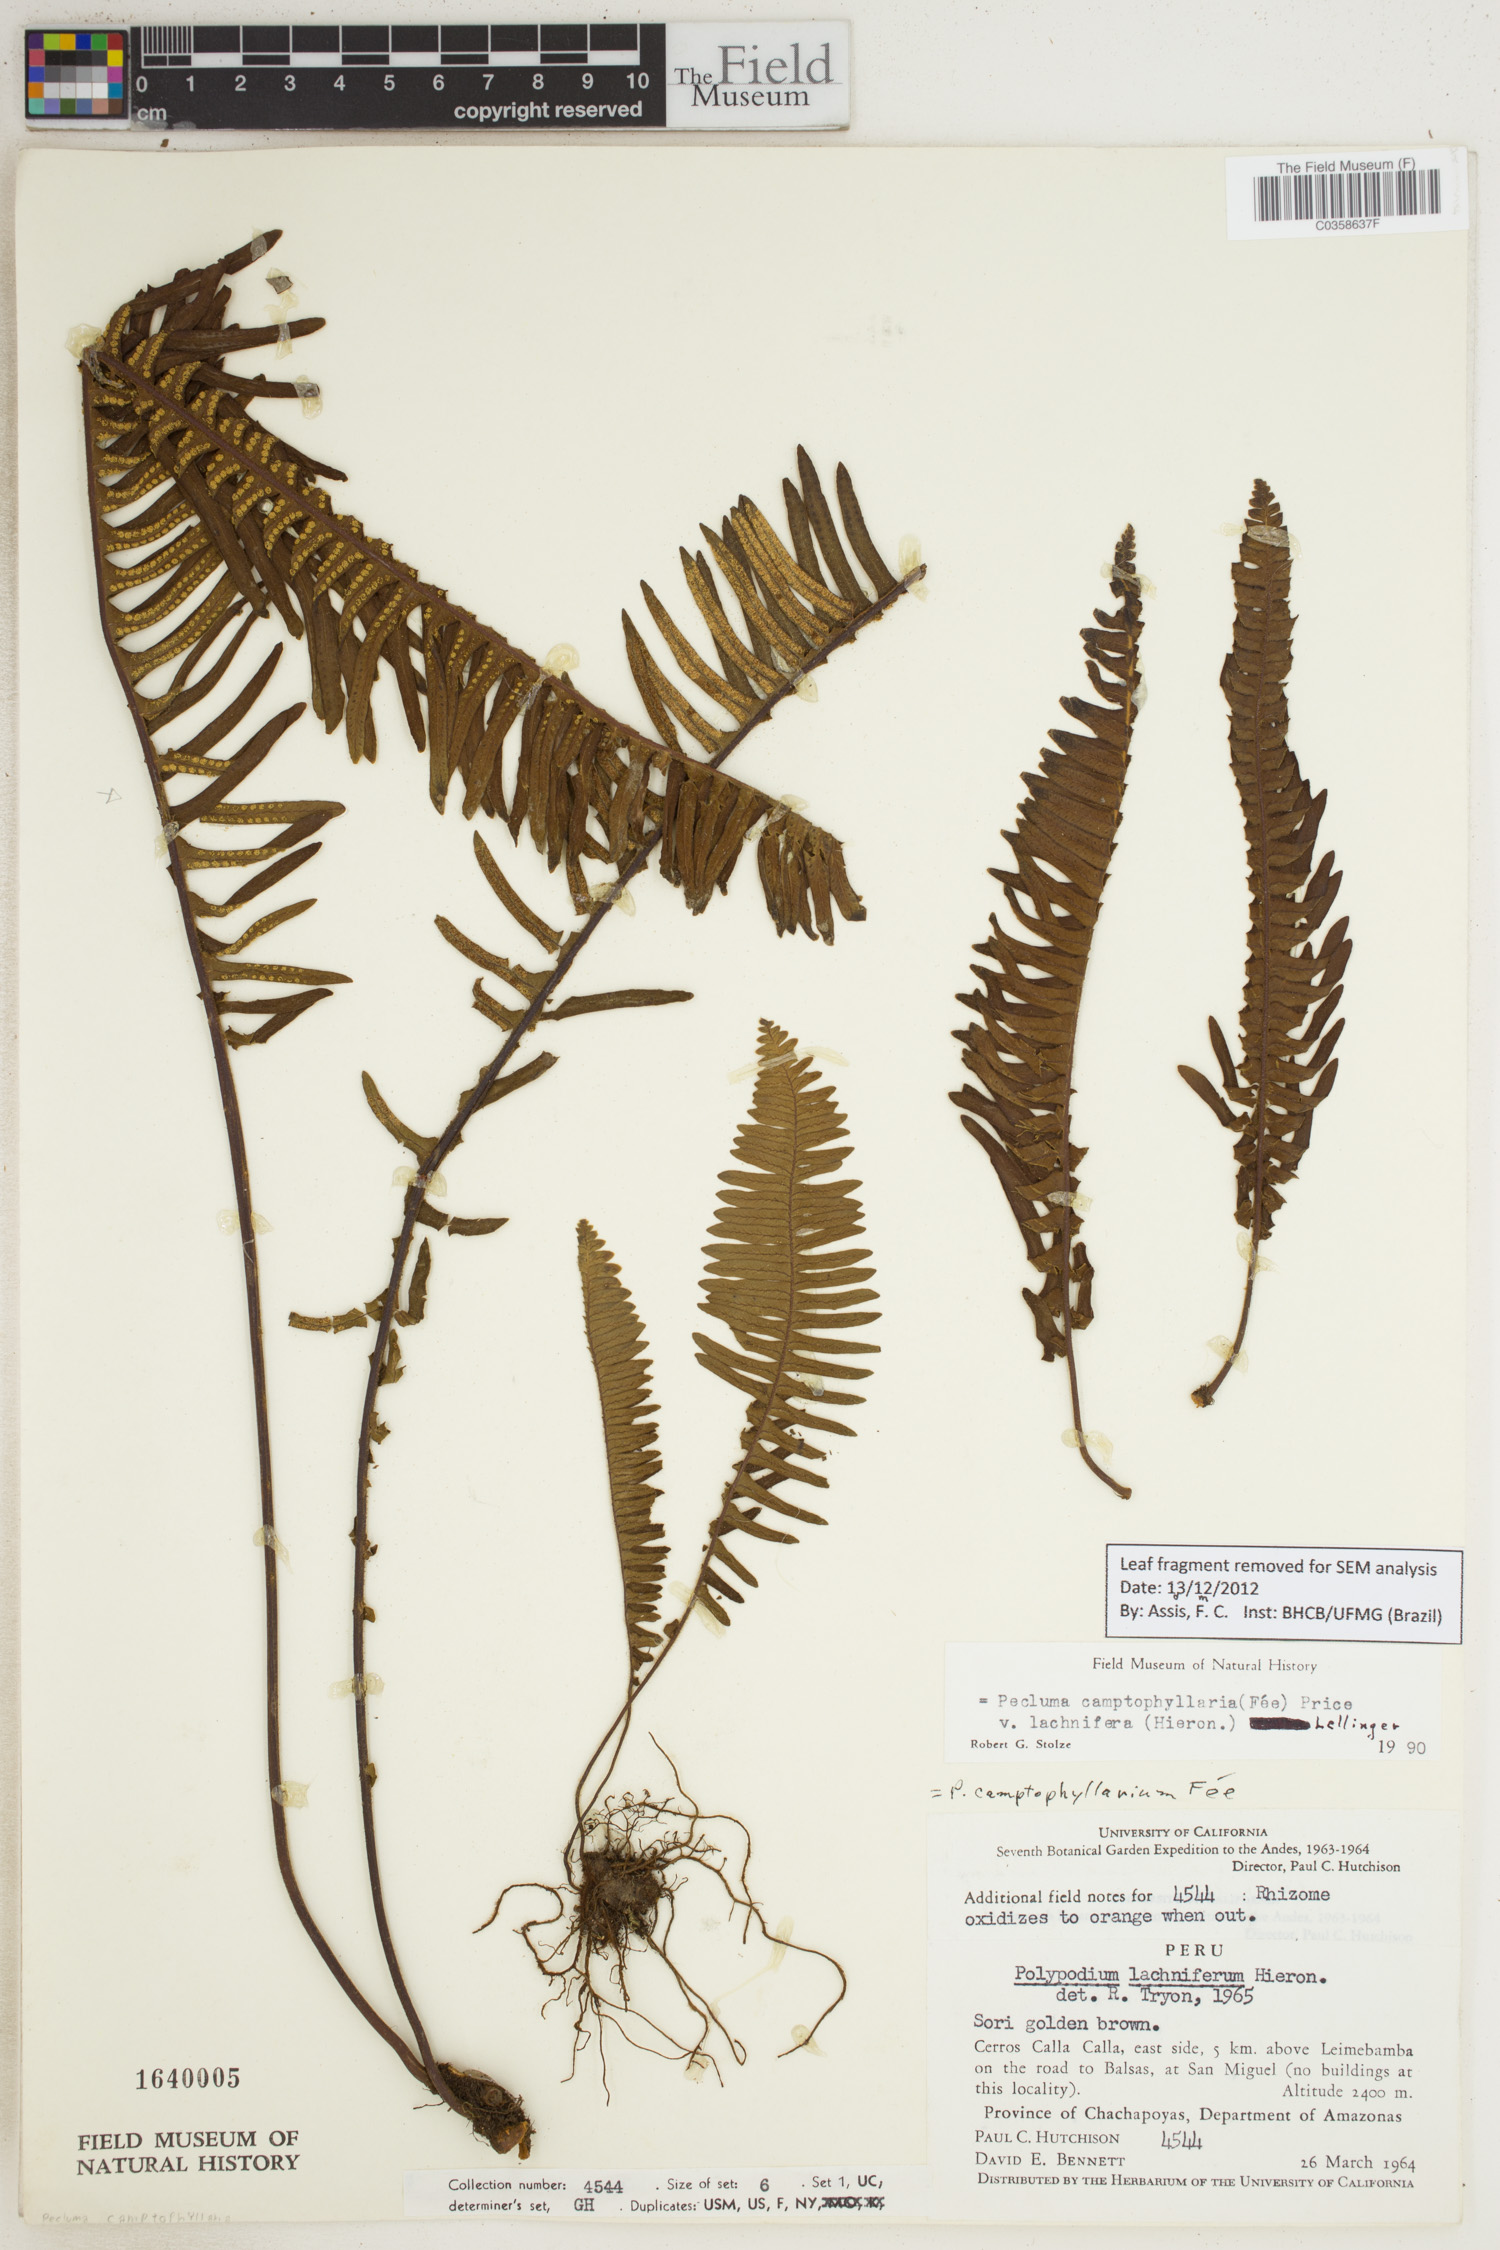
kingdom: Plantae
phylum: Tracheophyta
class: Polypodiopsida
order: Polypodiales
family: Polypodiaceae
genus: Pecluma
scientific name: Pecluma camptophyllaria
